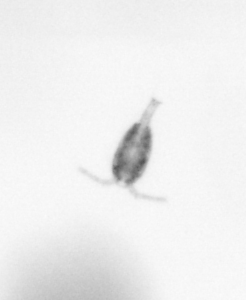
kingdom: Animalia
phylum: Arthropoda
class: Copepoda
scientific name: Copepoda
